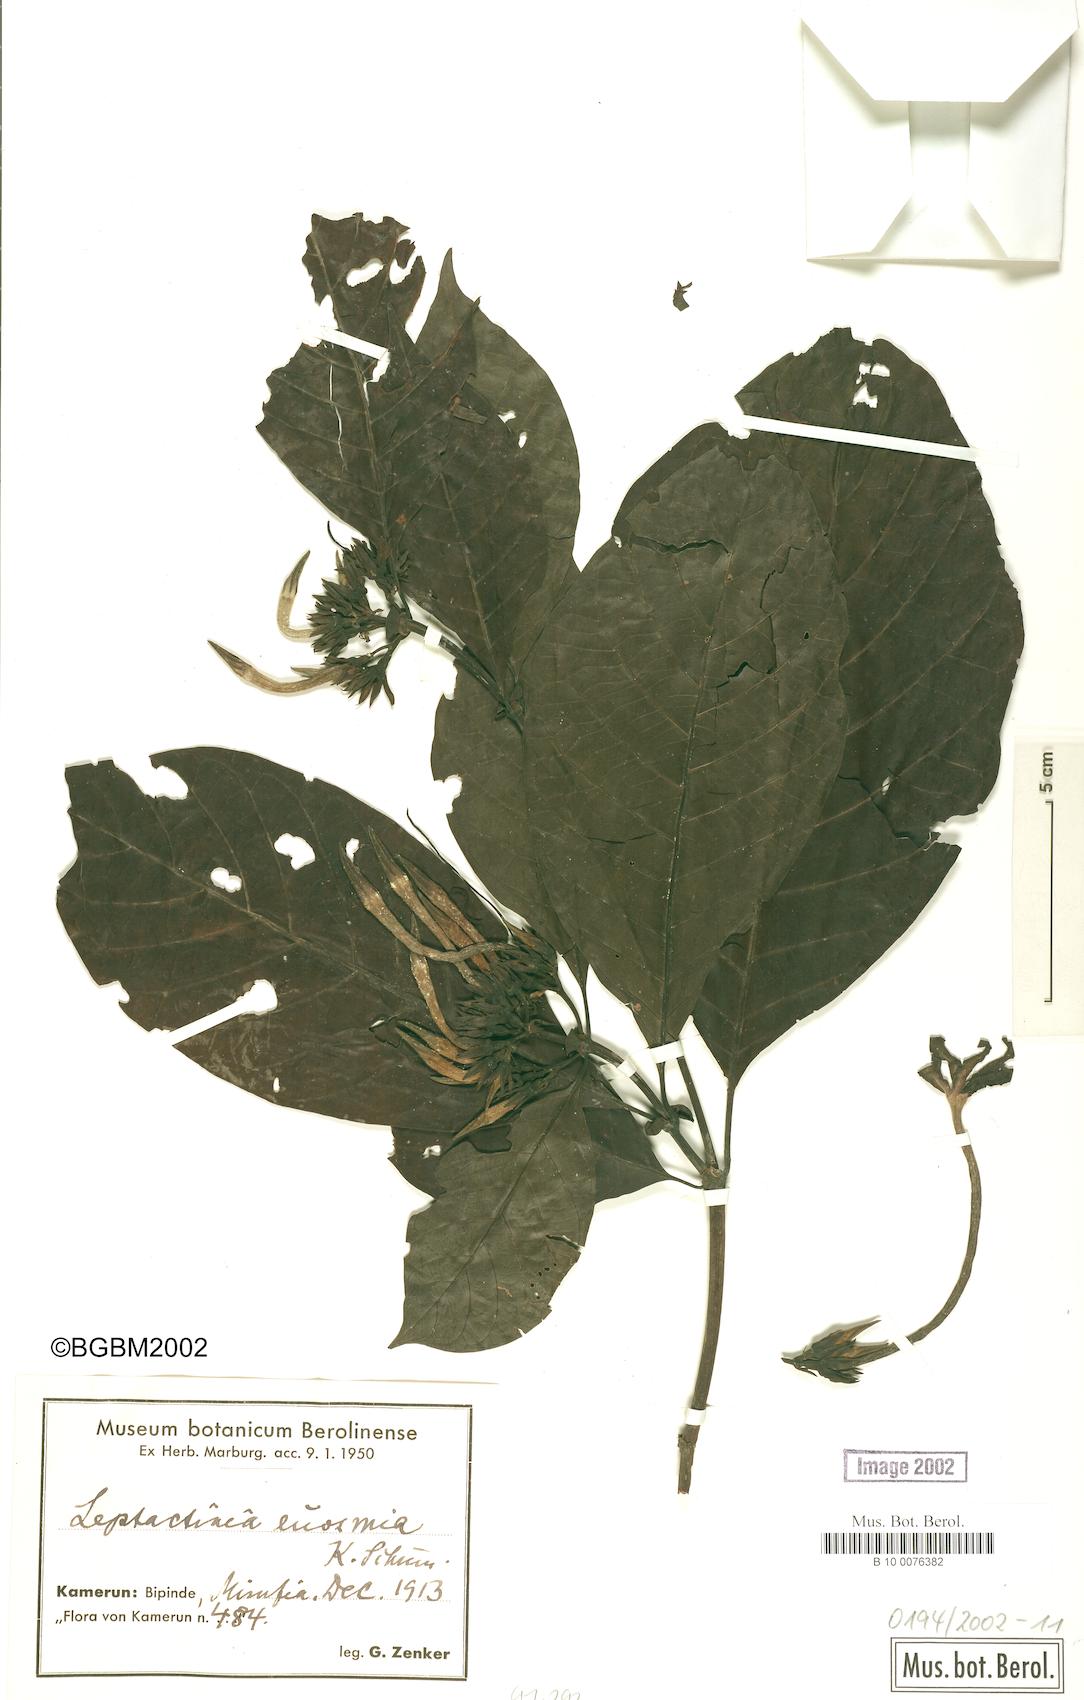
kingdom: Plantae
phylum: Tracheophyta
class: Magnoliopsida
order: Gentianales
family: Rubiaceae
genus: Leptactina
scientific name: Leptactina involucrata
